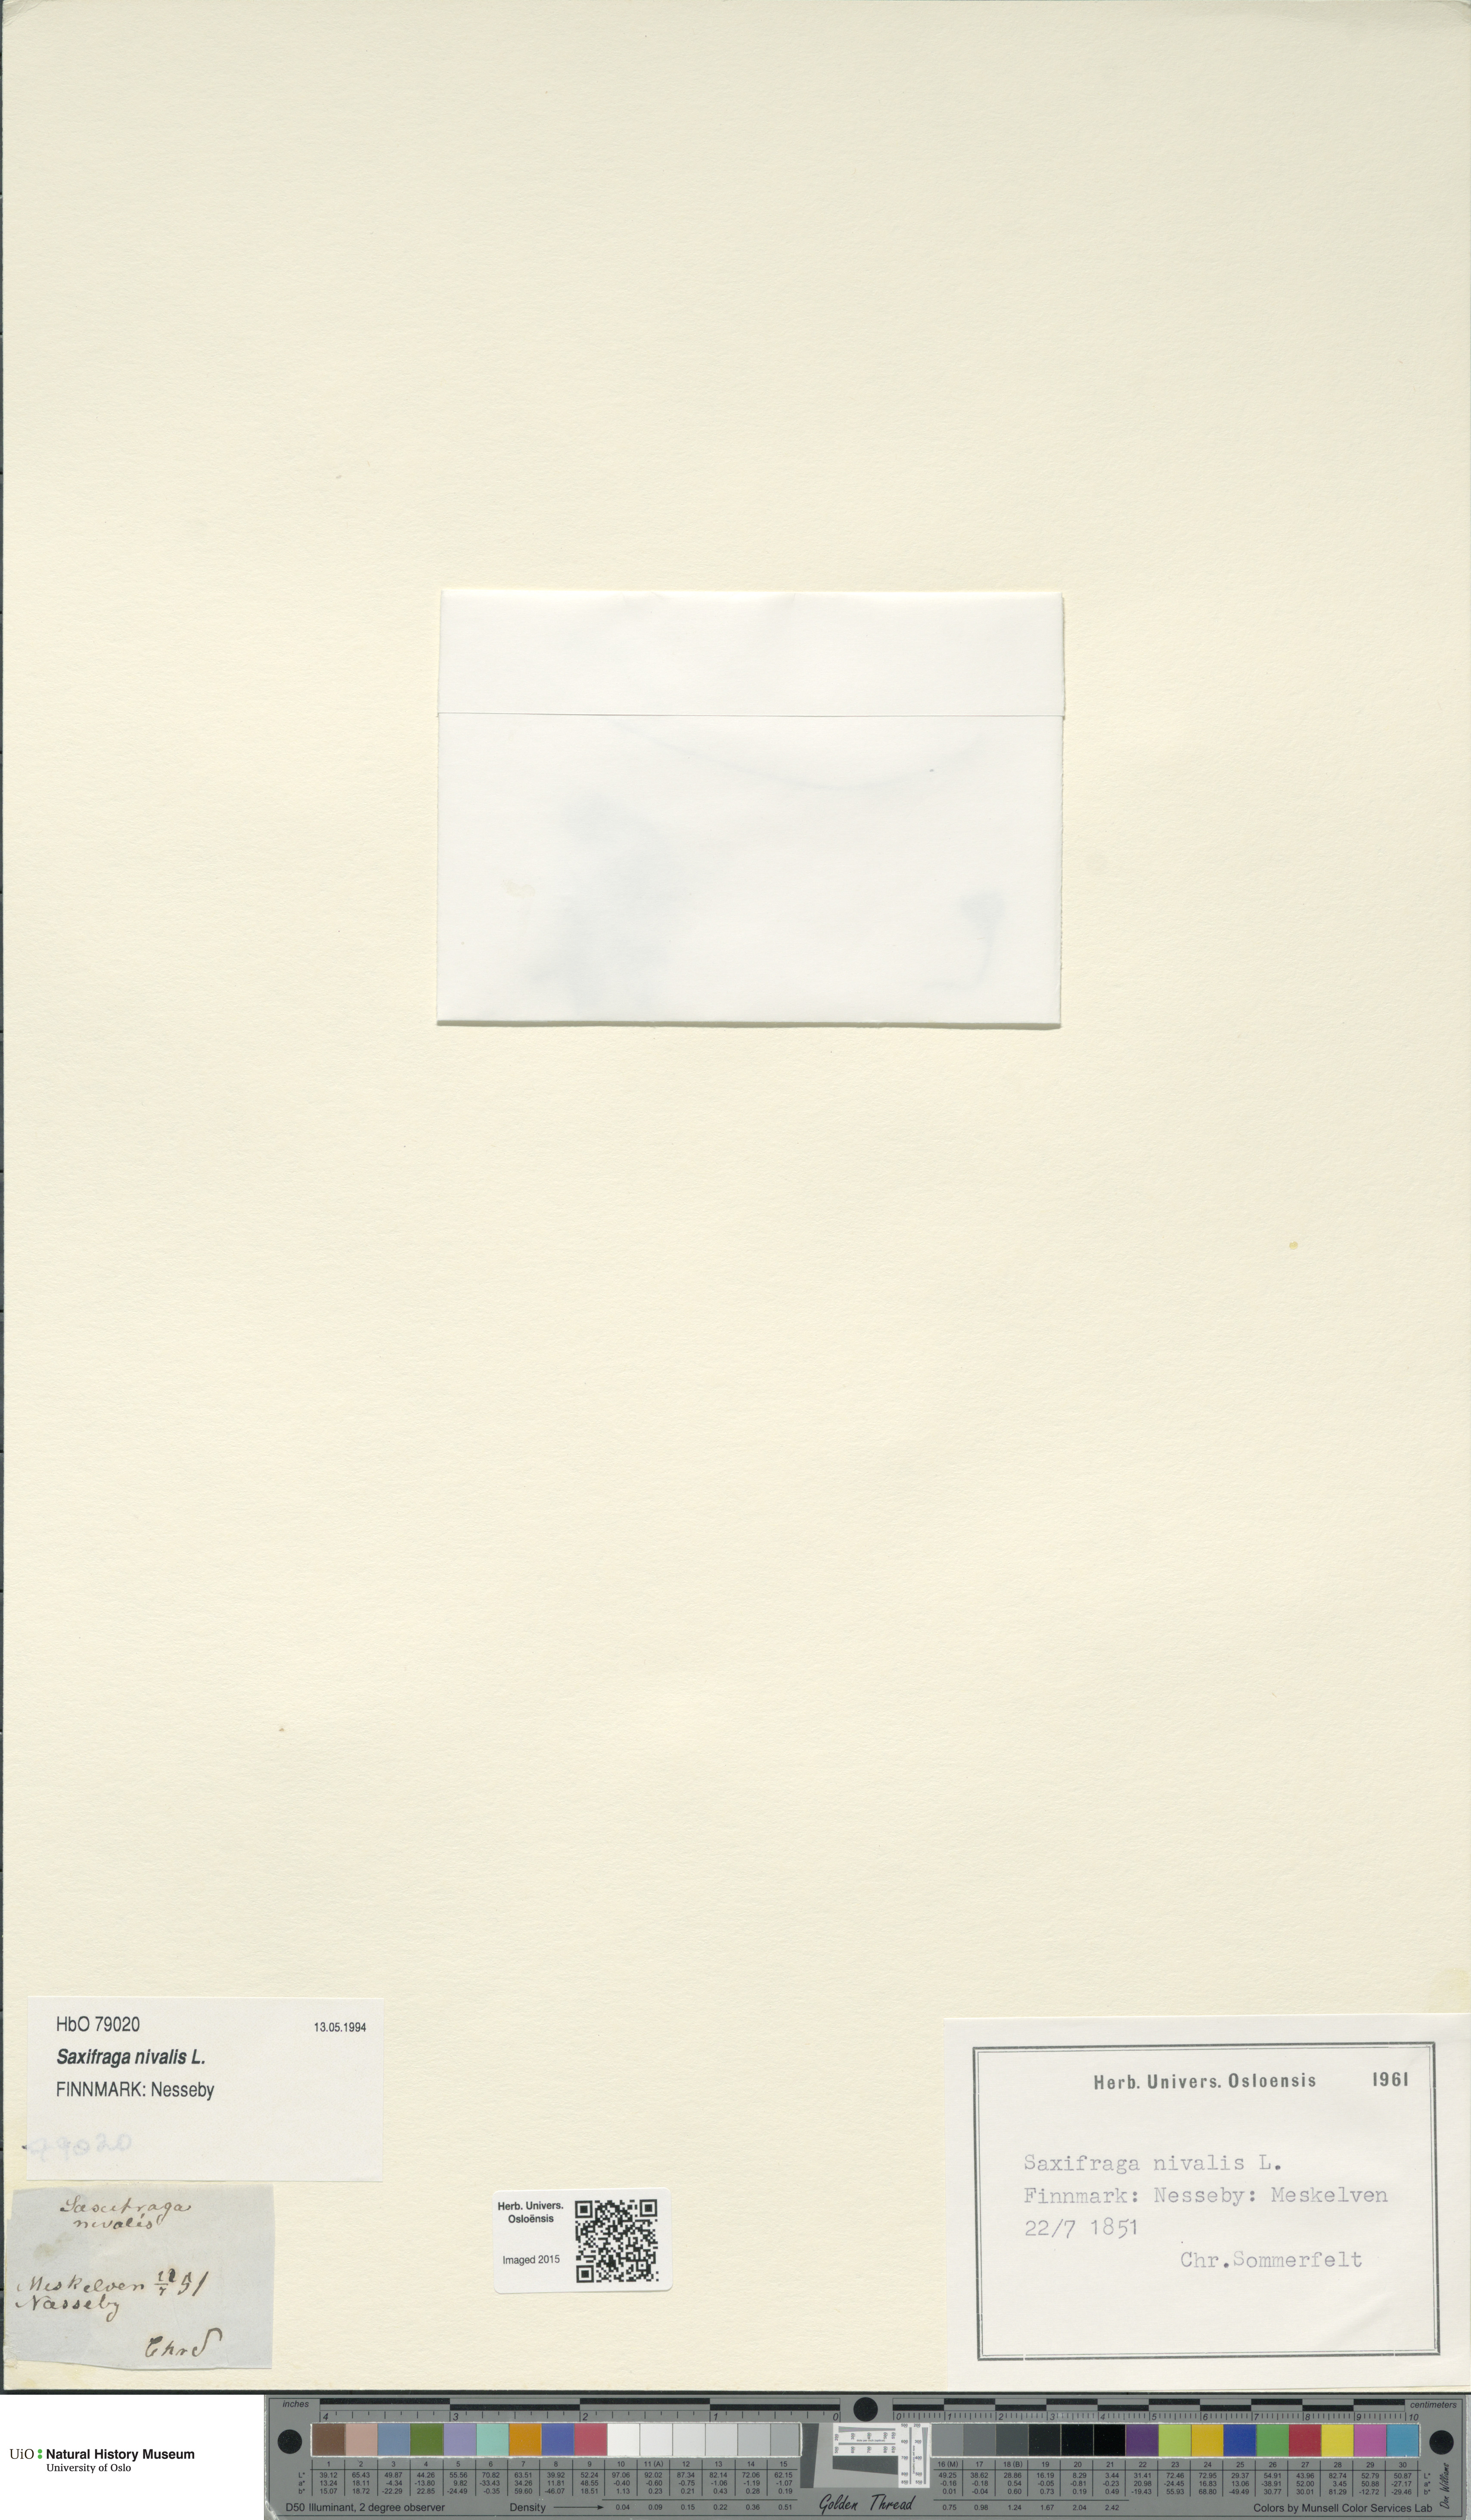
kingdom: Plantae
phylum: Tracheophyta
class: Magnoliopsida
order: Saxifragales
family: Saxifragaceae
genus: Micranthes
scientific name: Micranthes nivalis
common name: Alpine saxifrage
